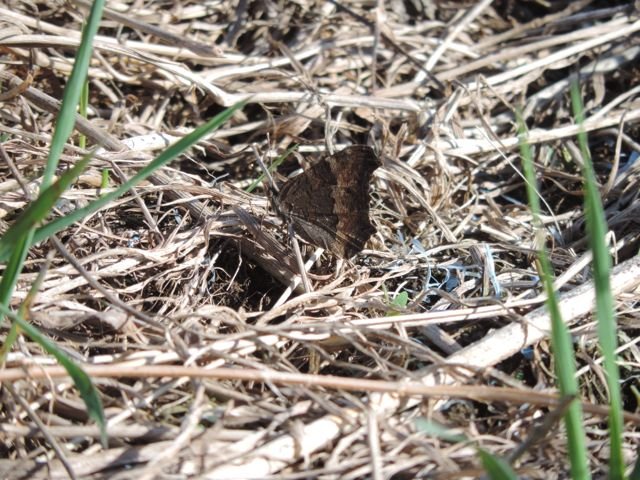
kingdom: Animalia
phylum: Arthropoda
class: Insecta
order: Lepidoptera
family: Nymphalidae
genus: Aglais
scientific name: Aglais milberti
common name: Milbert's Tortoiseshell
